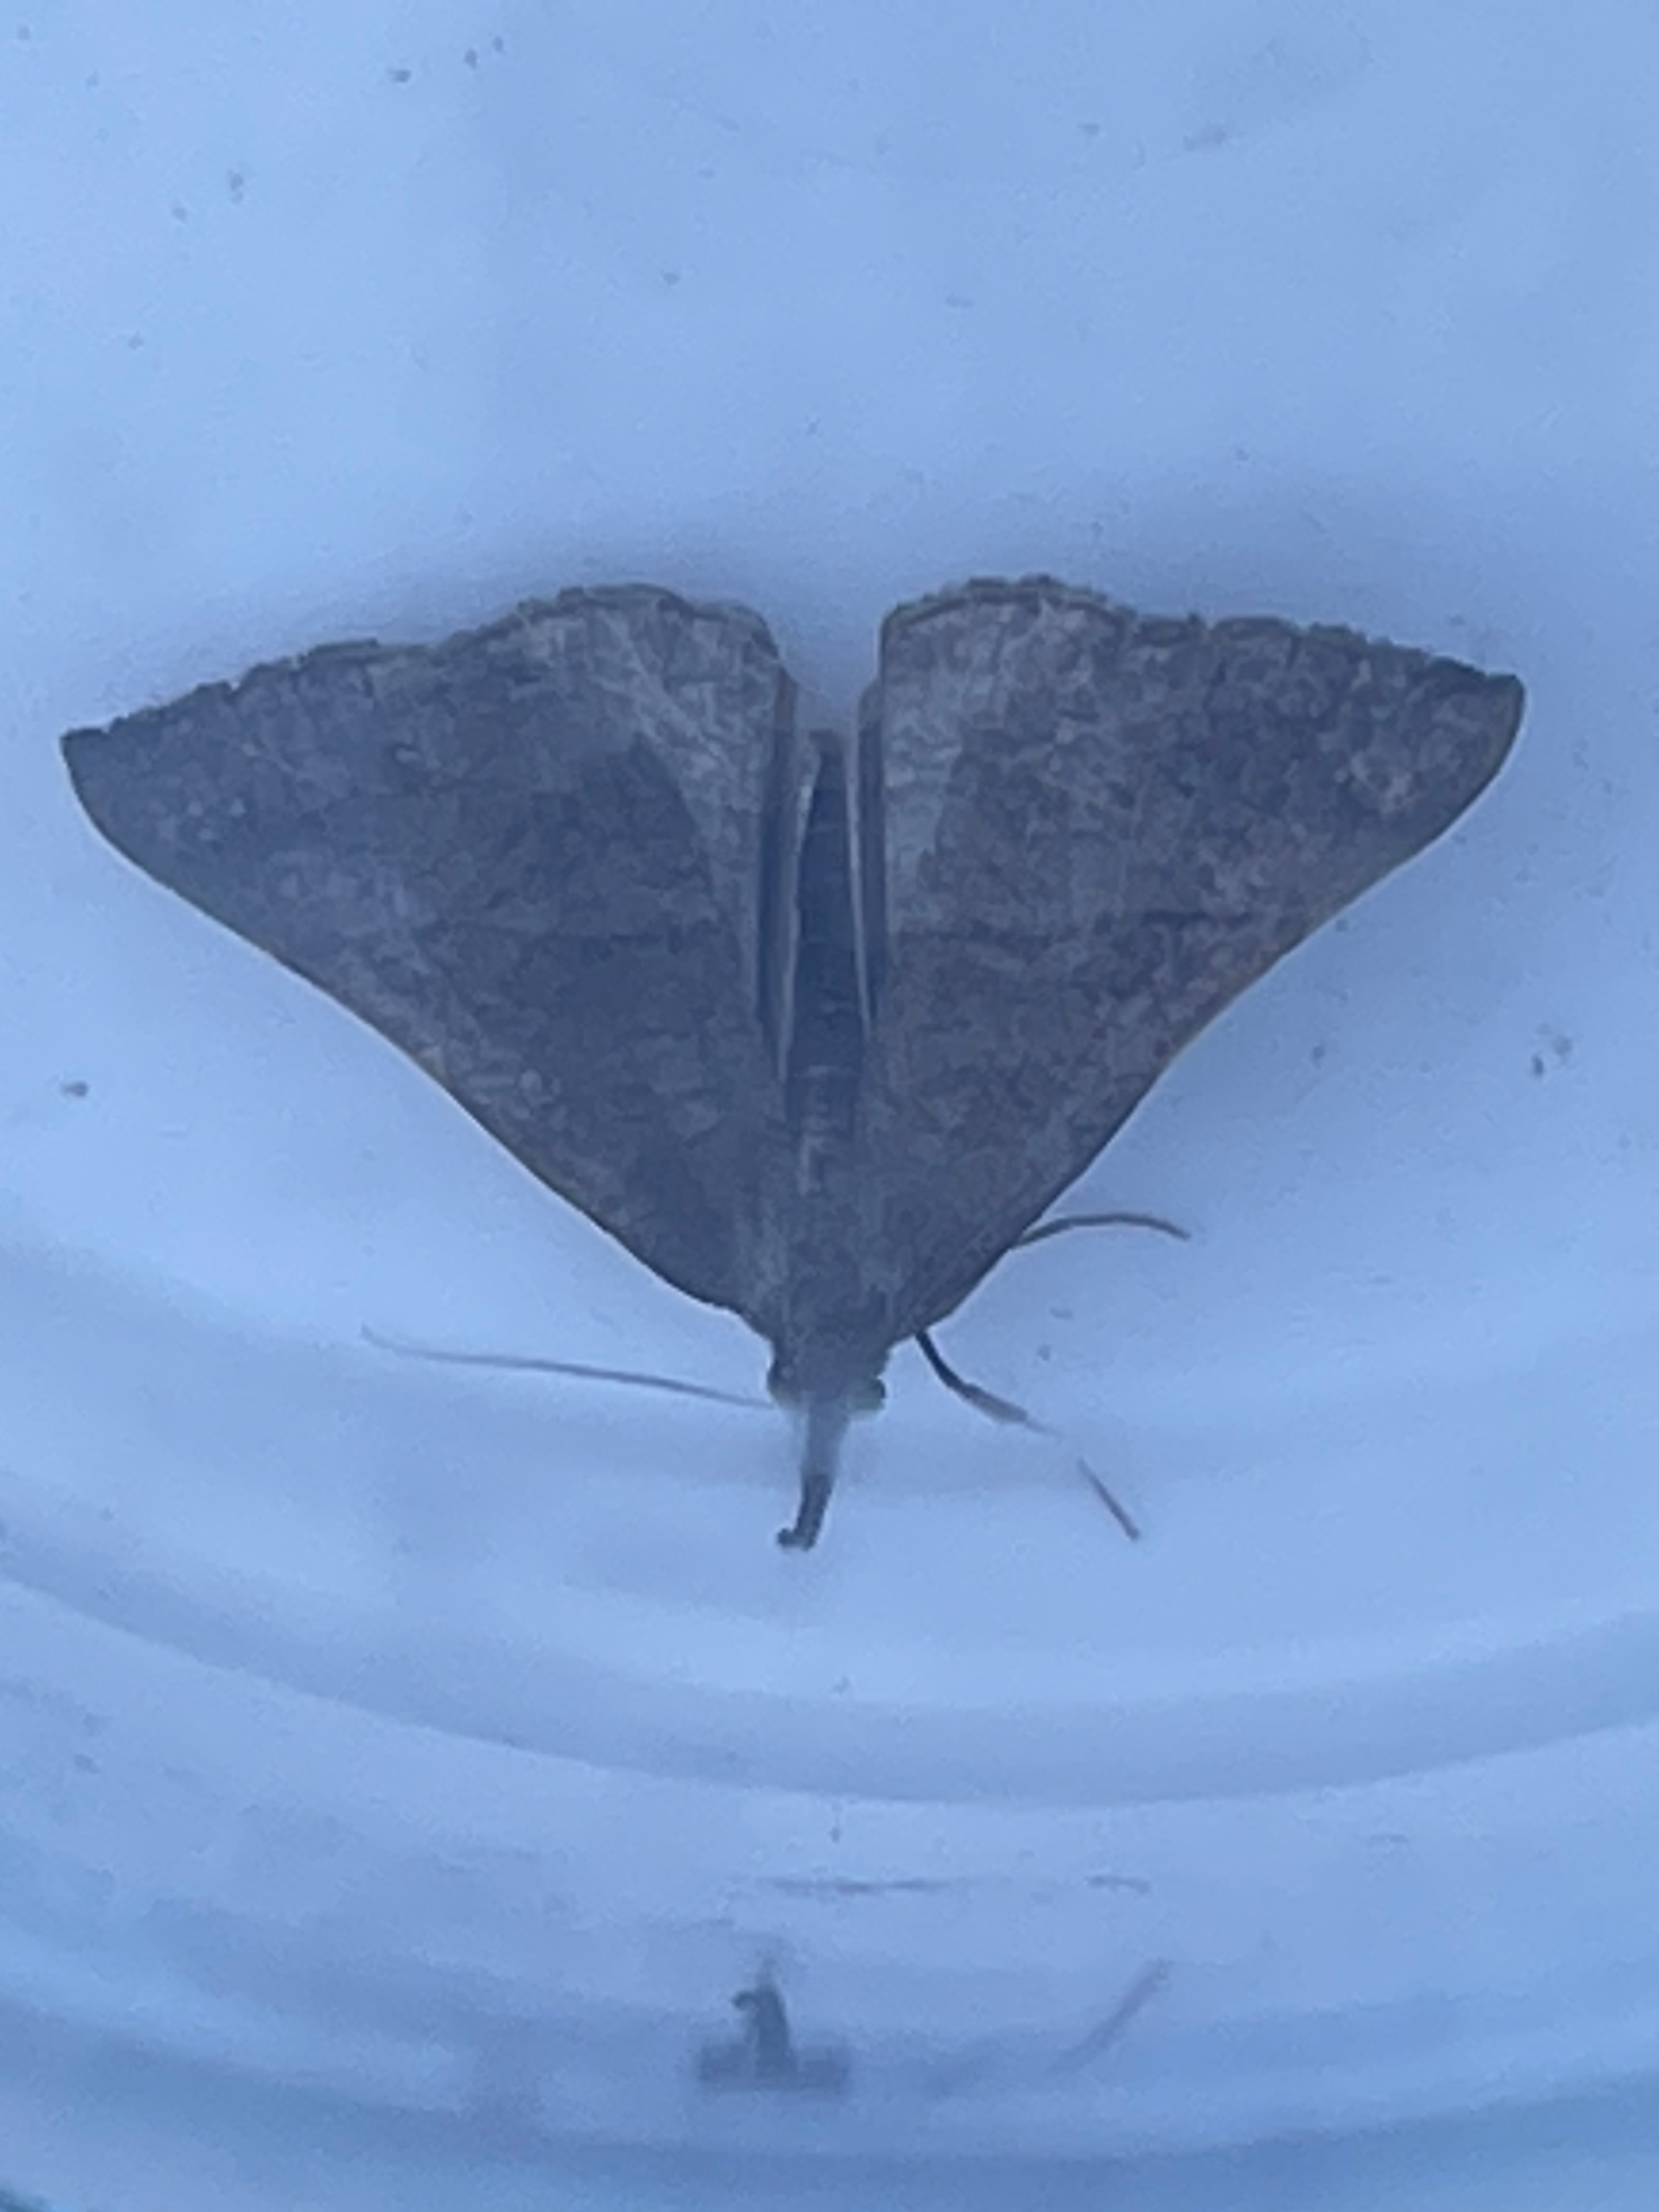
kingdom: Animalia
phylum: Arthropoda
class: Insecta
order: Lepidoptera
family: Erebidae
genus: Hypena
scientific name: Hypena proboscidalis
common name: Snudeugle
